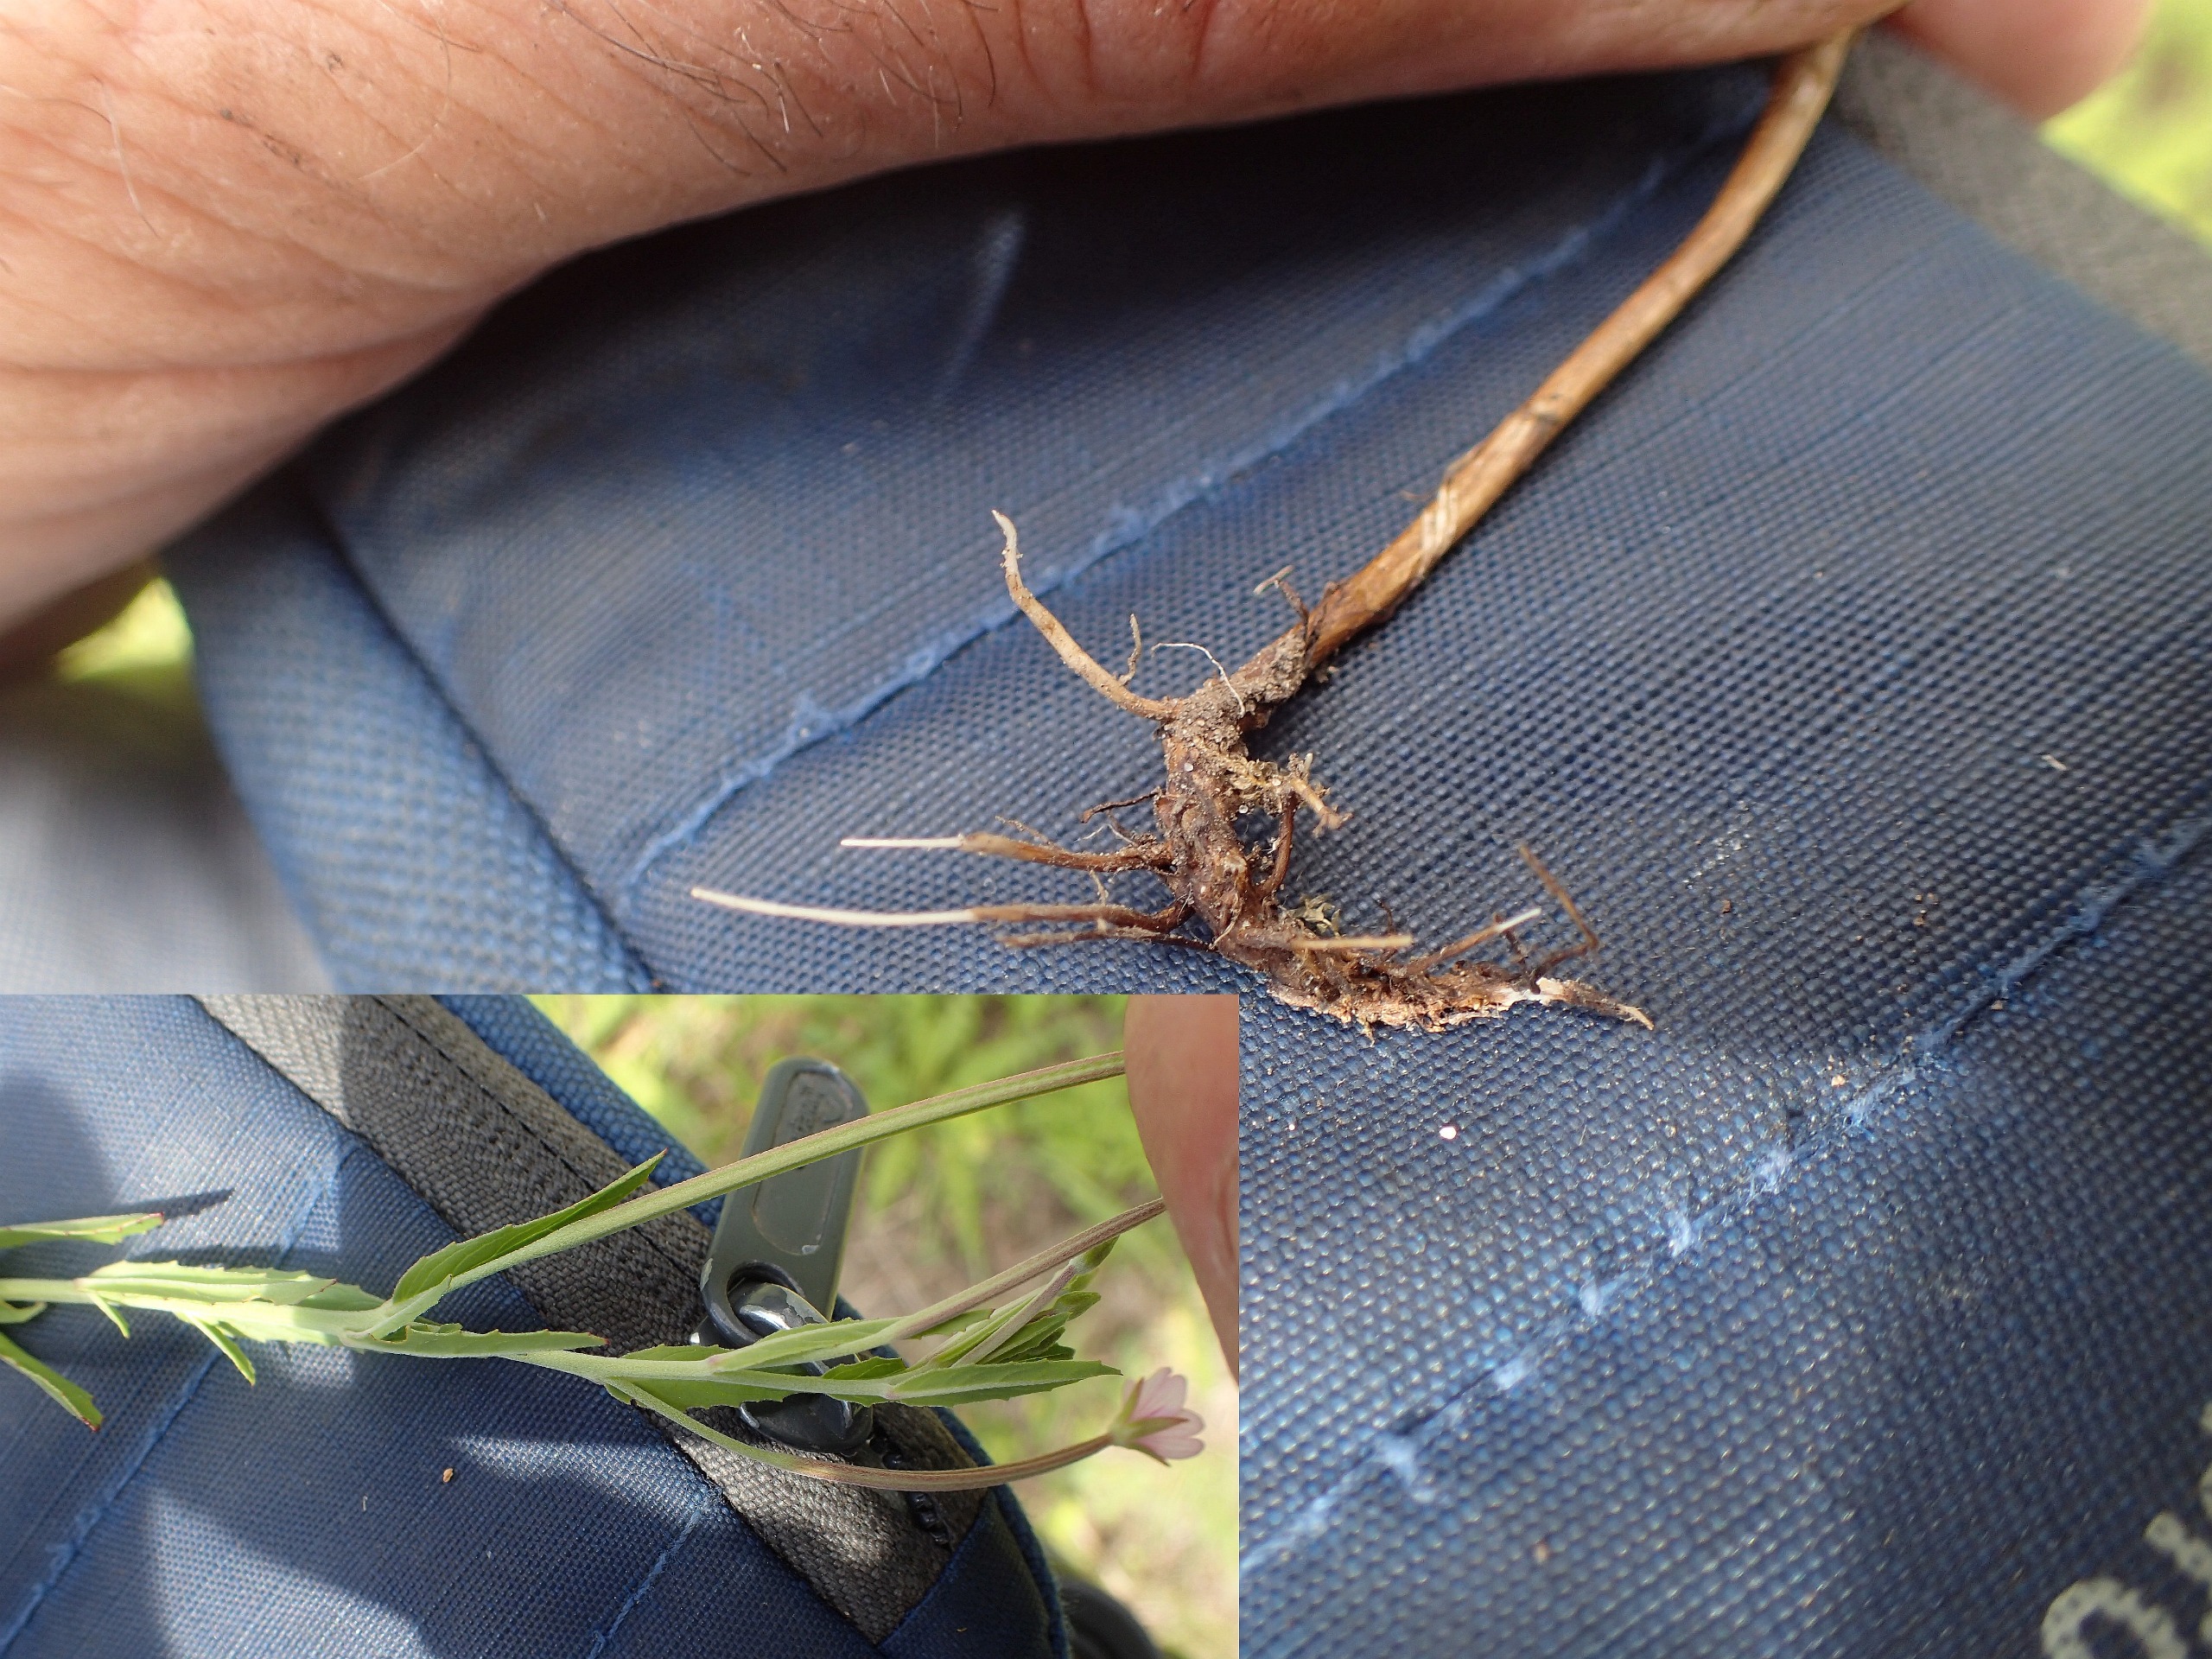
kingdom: Plantae
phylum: Tracheophyta
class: Magnoliopsida
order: Myrtales
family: Onagraceae
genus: Epilobium
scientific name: Epilobium obscurum
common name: Ris-dueurt
